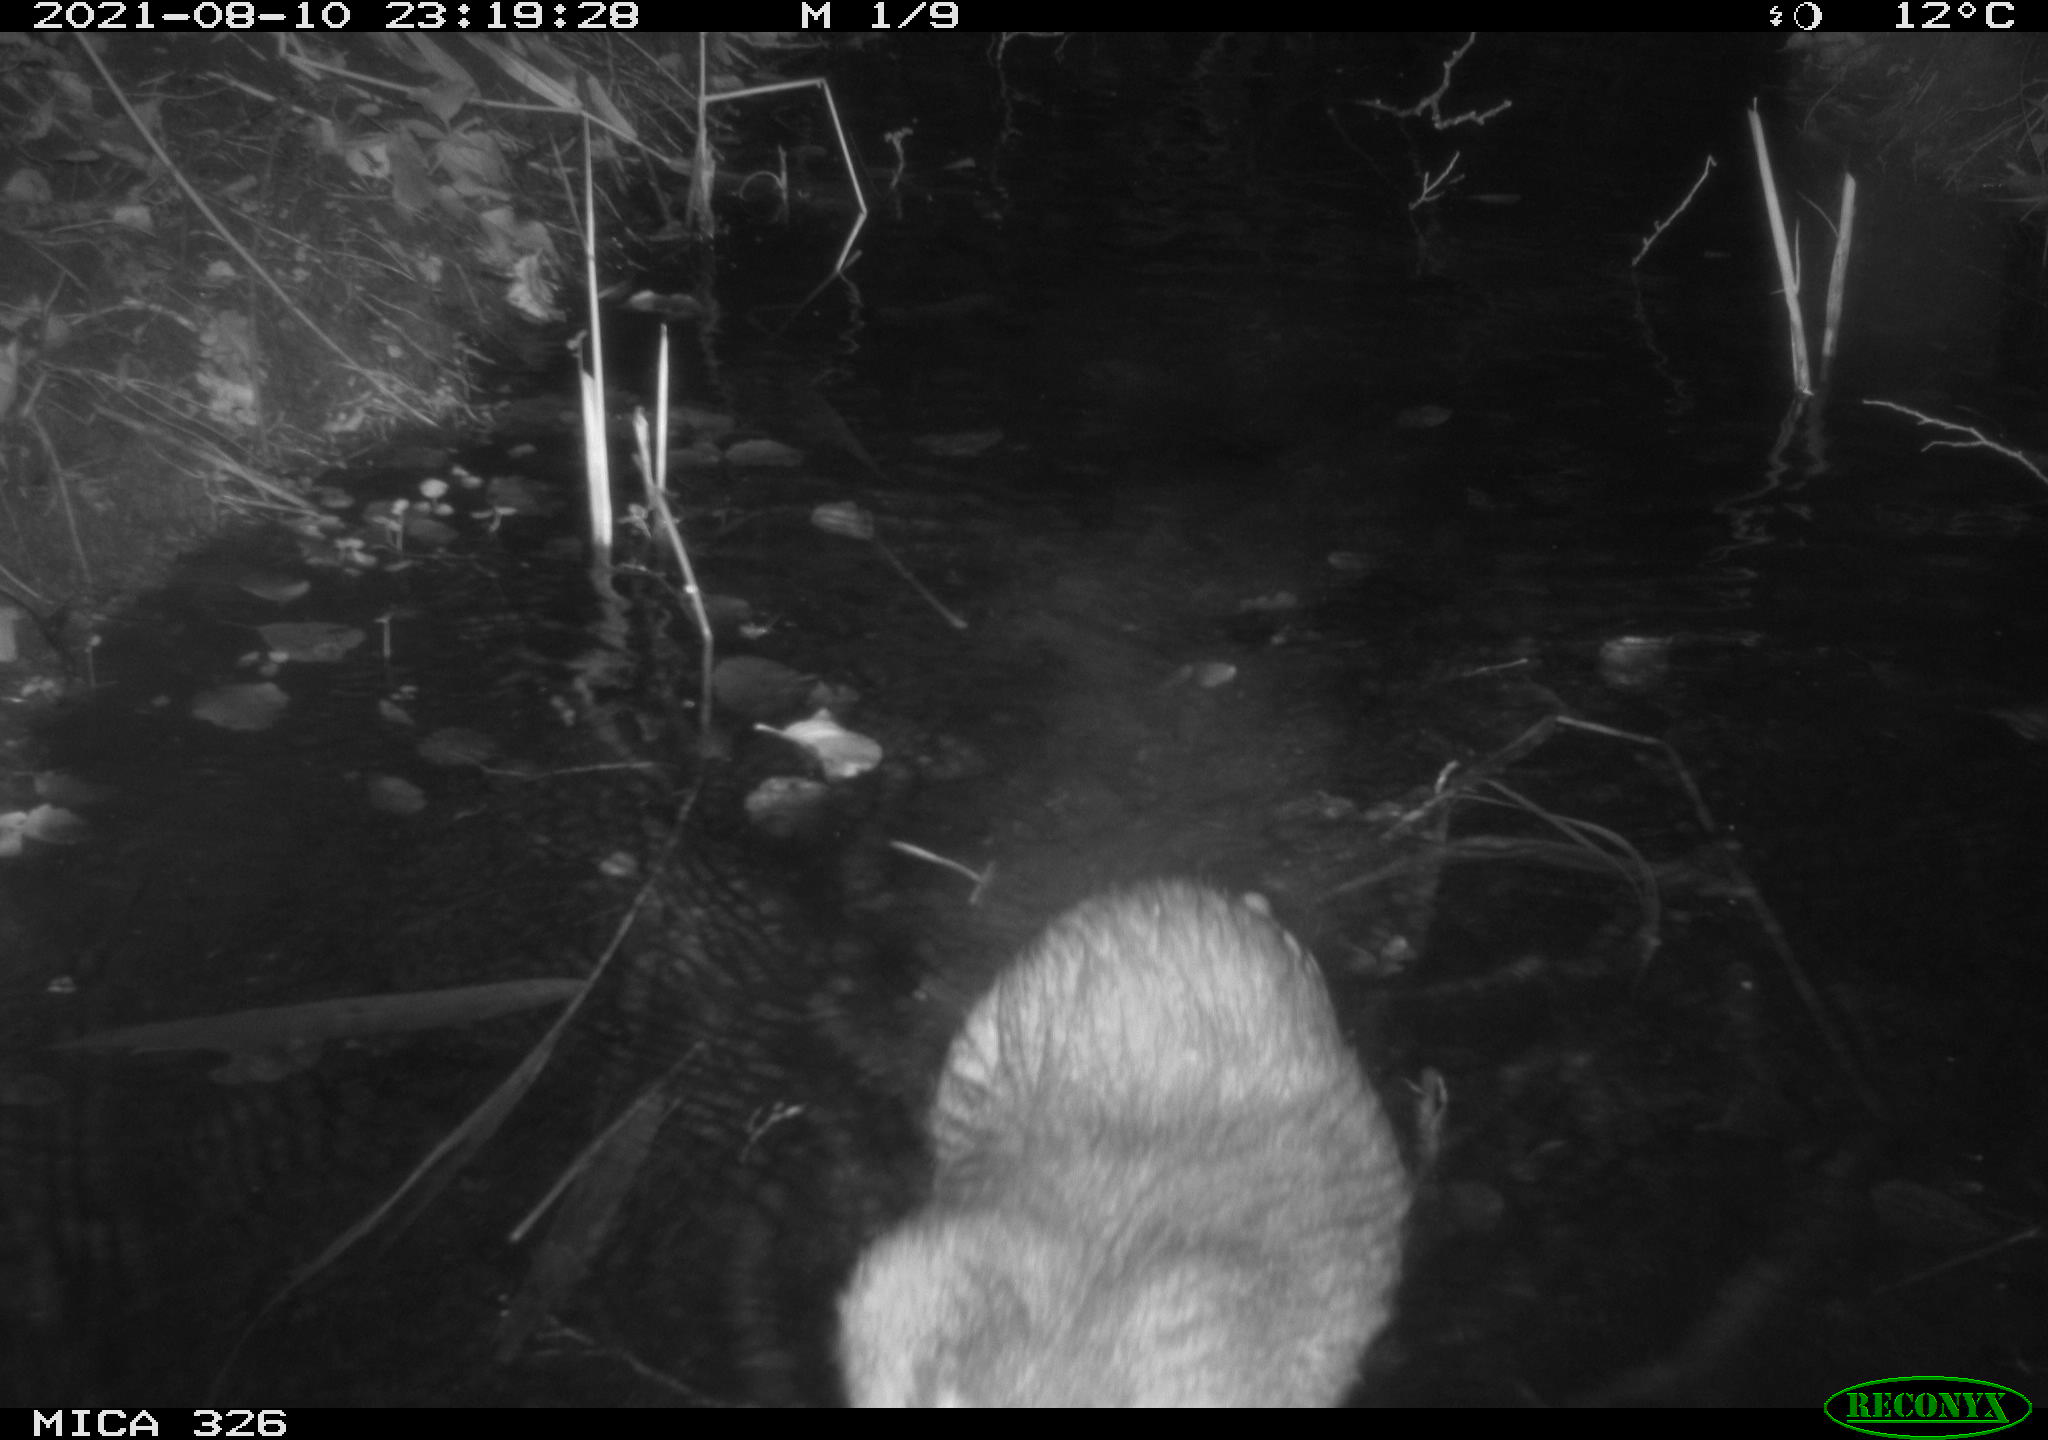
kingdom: Animalia
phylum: Chordata
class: Mammalia
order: Rodentia
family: Myocastoridae
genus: Myocastor
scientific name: Myocastor coypus
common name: Coypu
